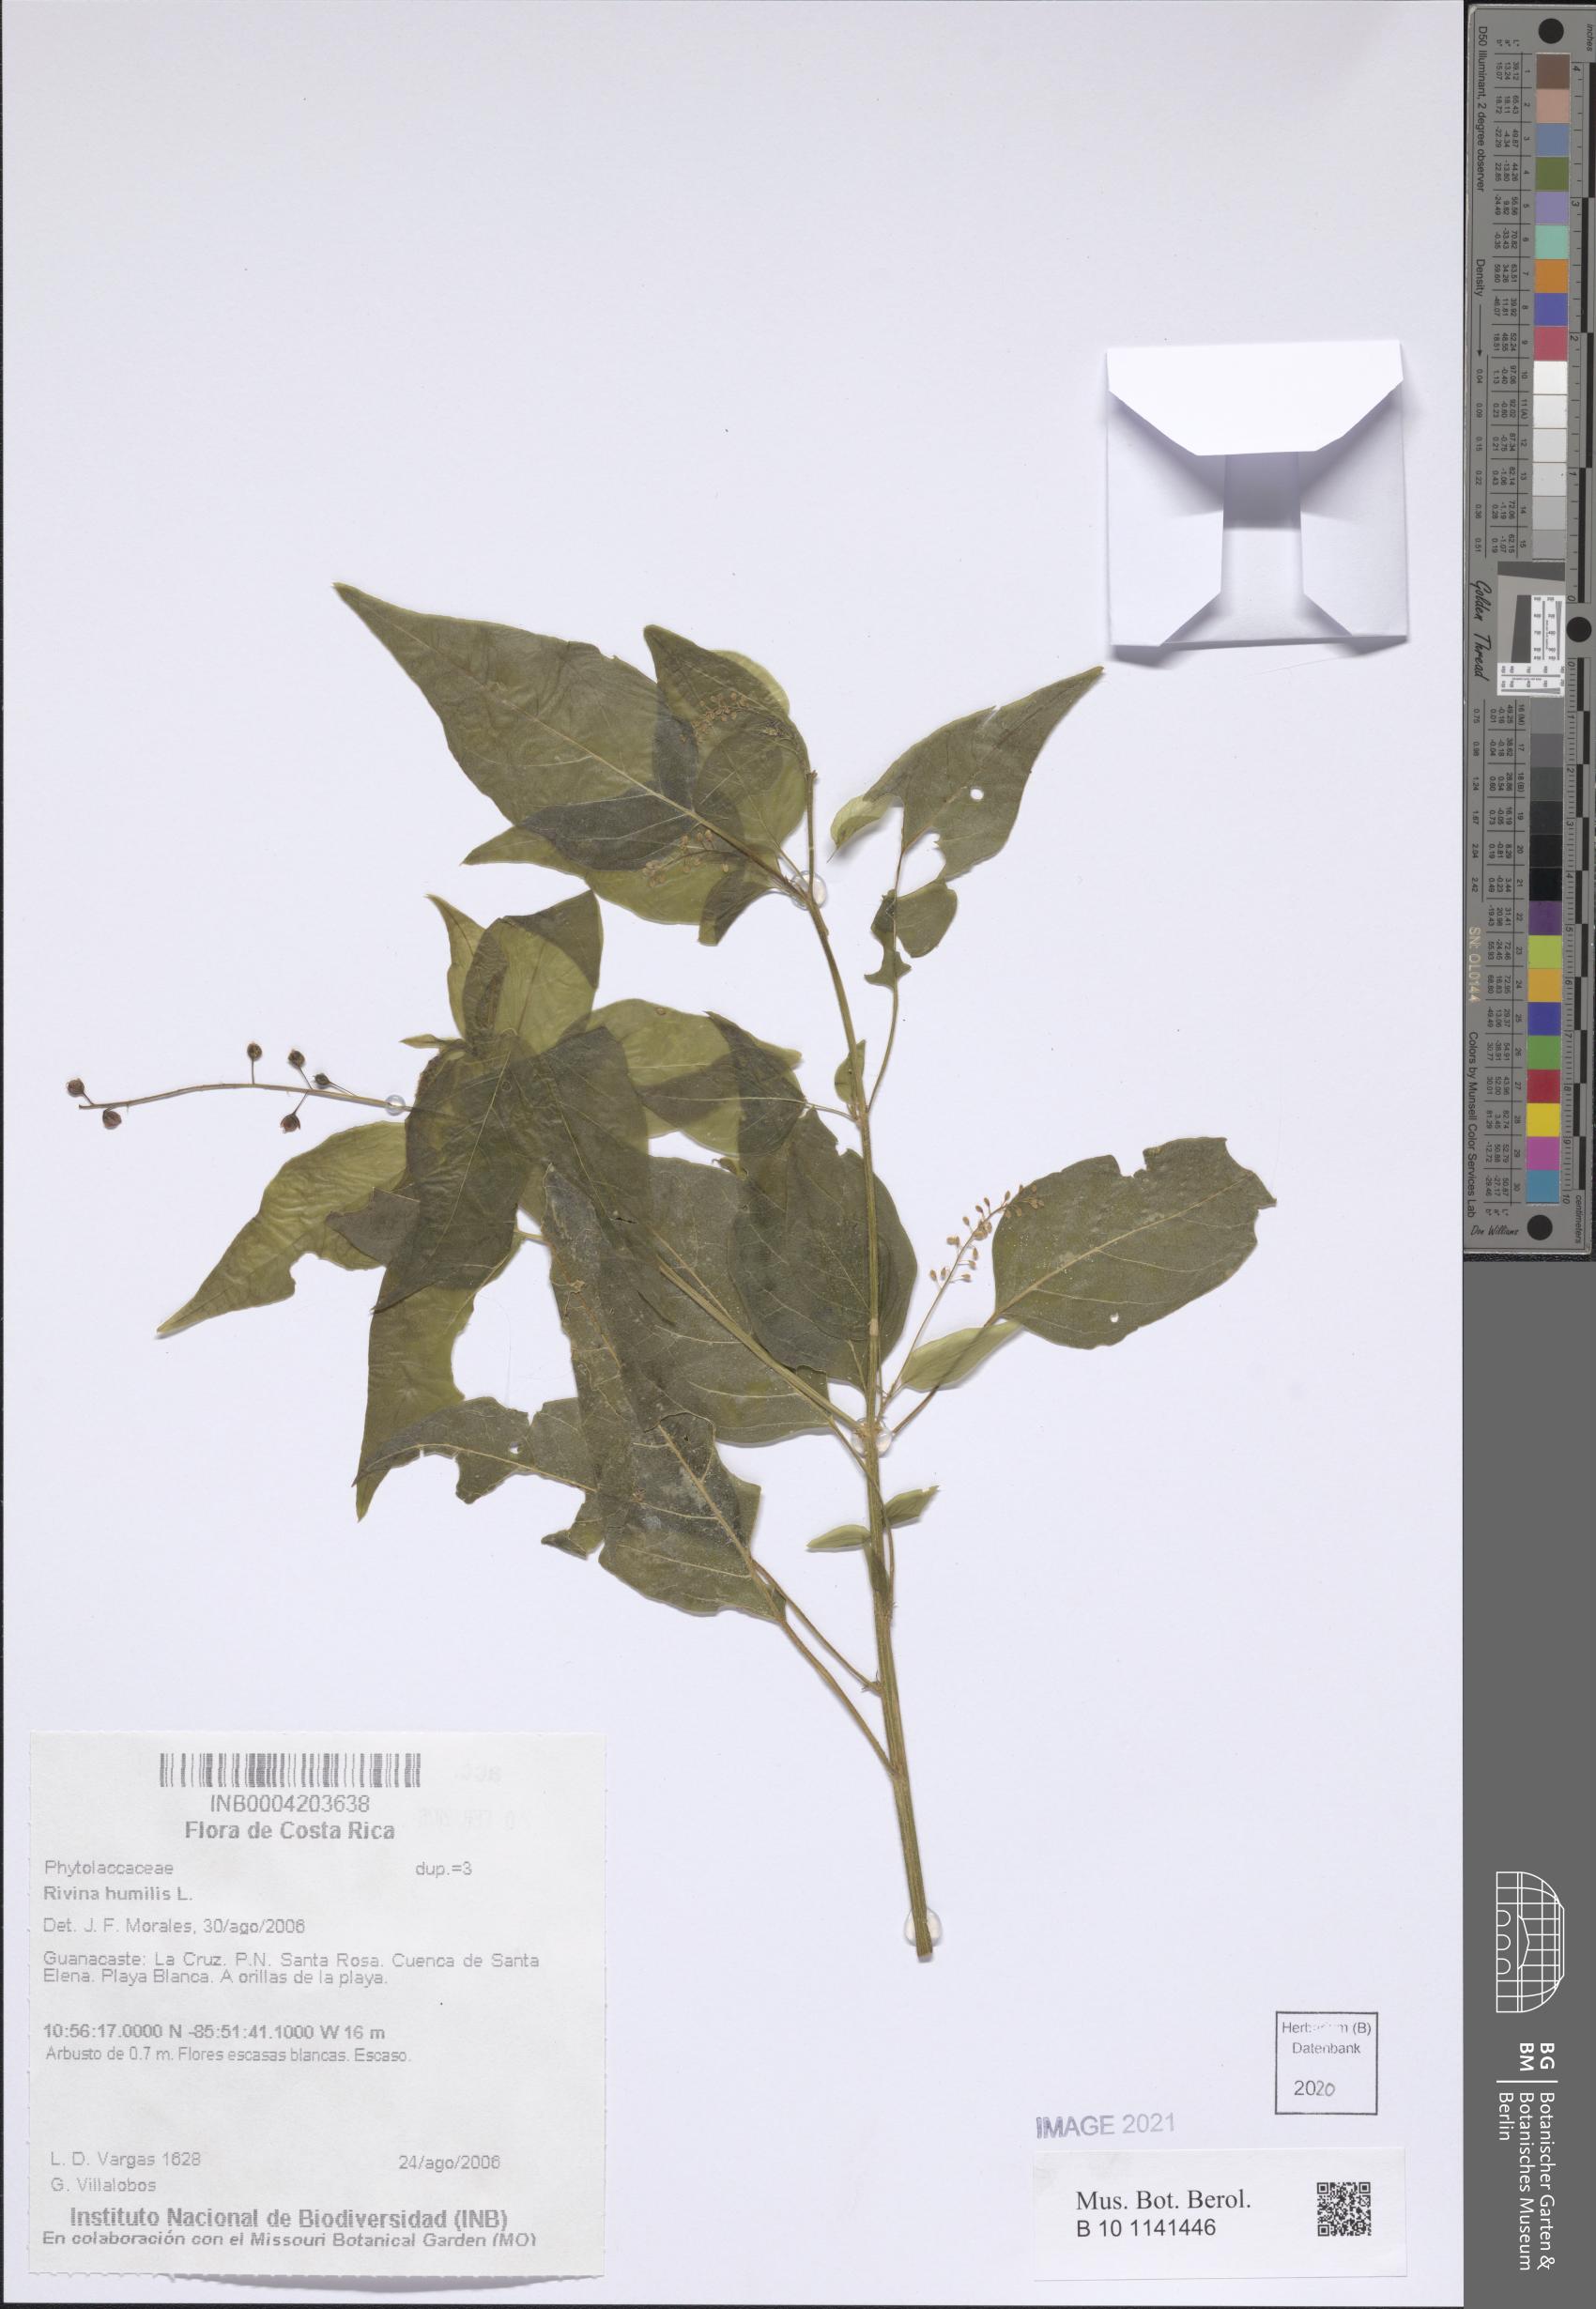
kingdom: Plantae
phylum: Tracheophyta
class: Magnoliopsida
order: Caryophyllales
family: Phytolaccaceae
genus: Rivina
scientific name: Rivina humilis
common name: Rougeplant
